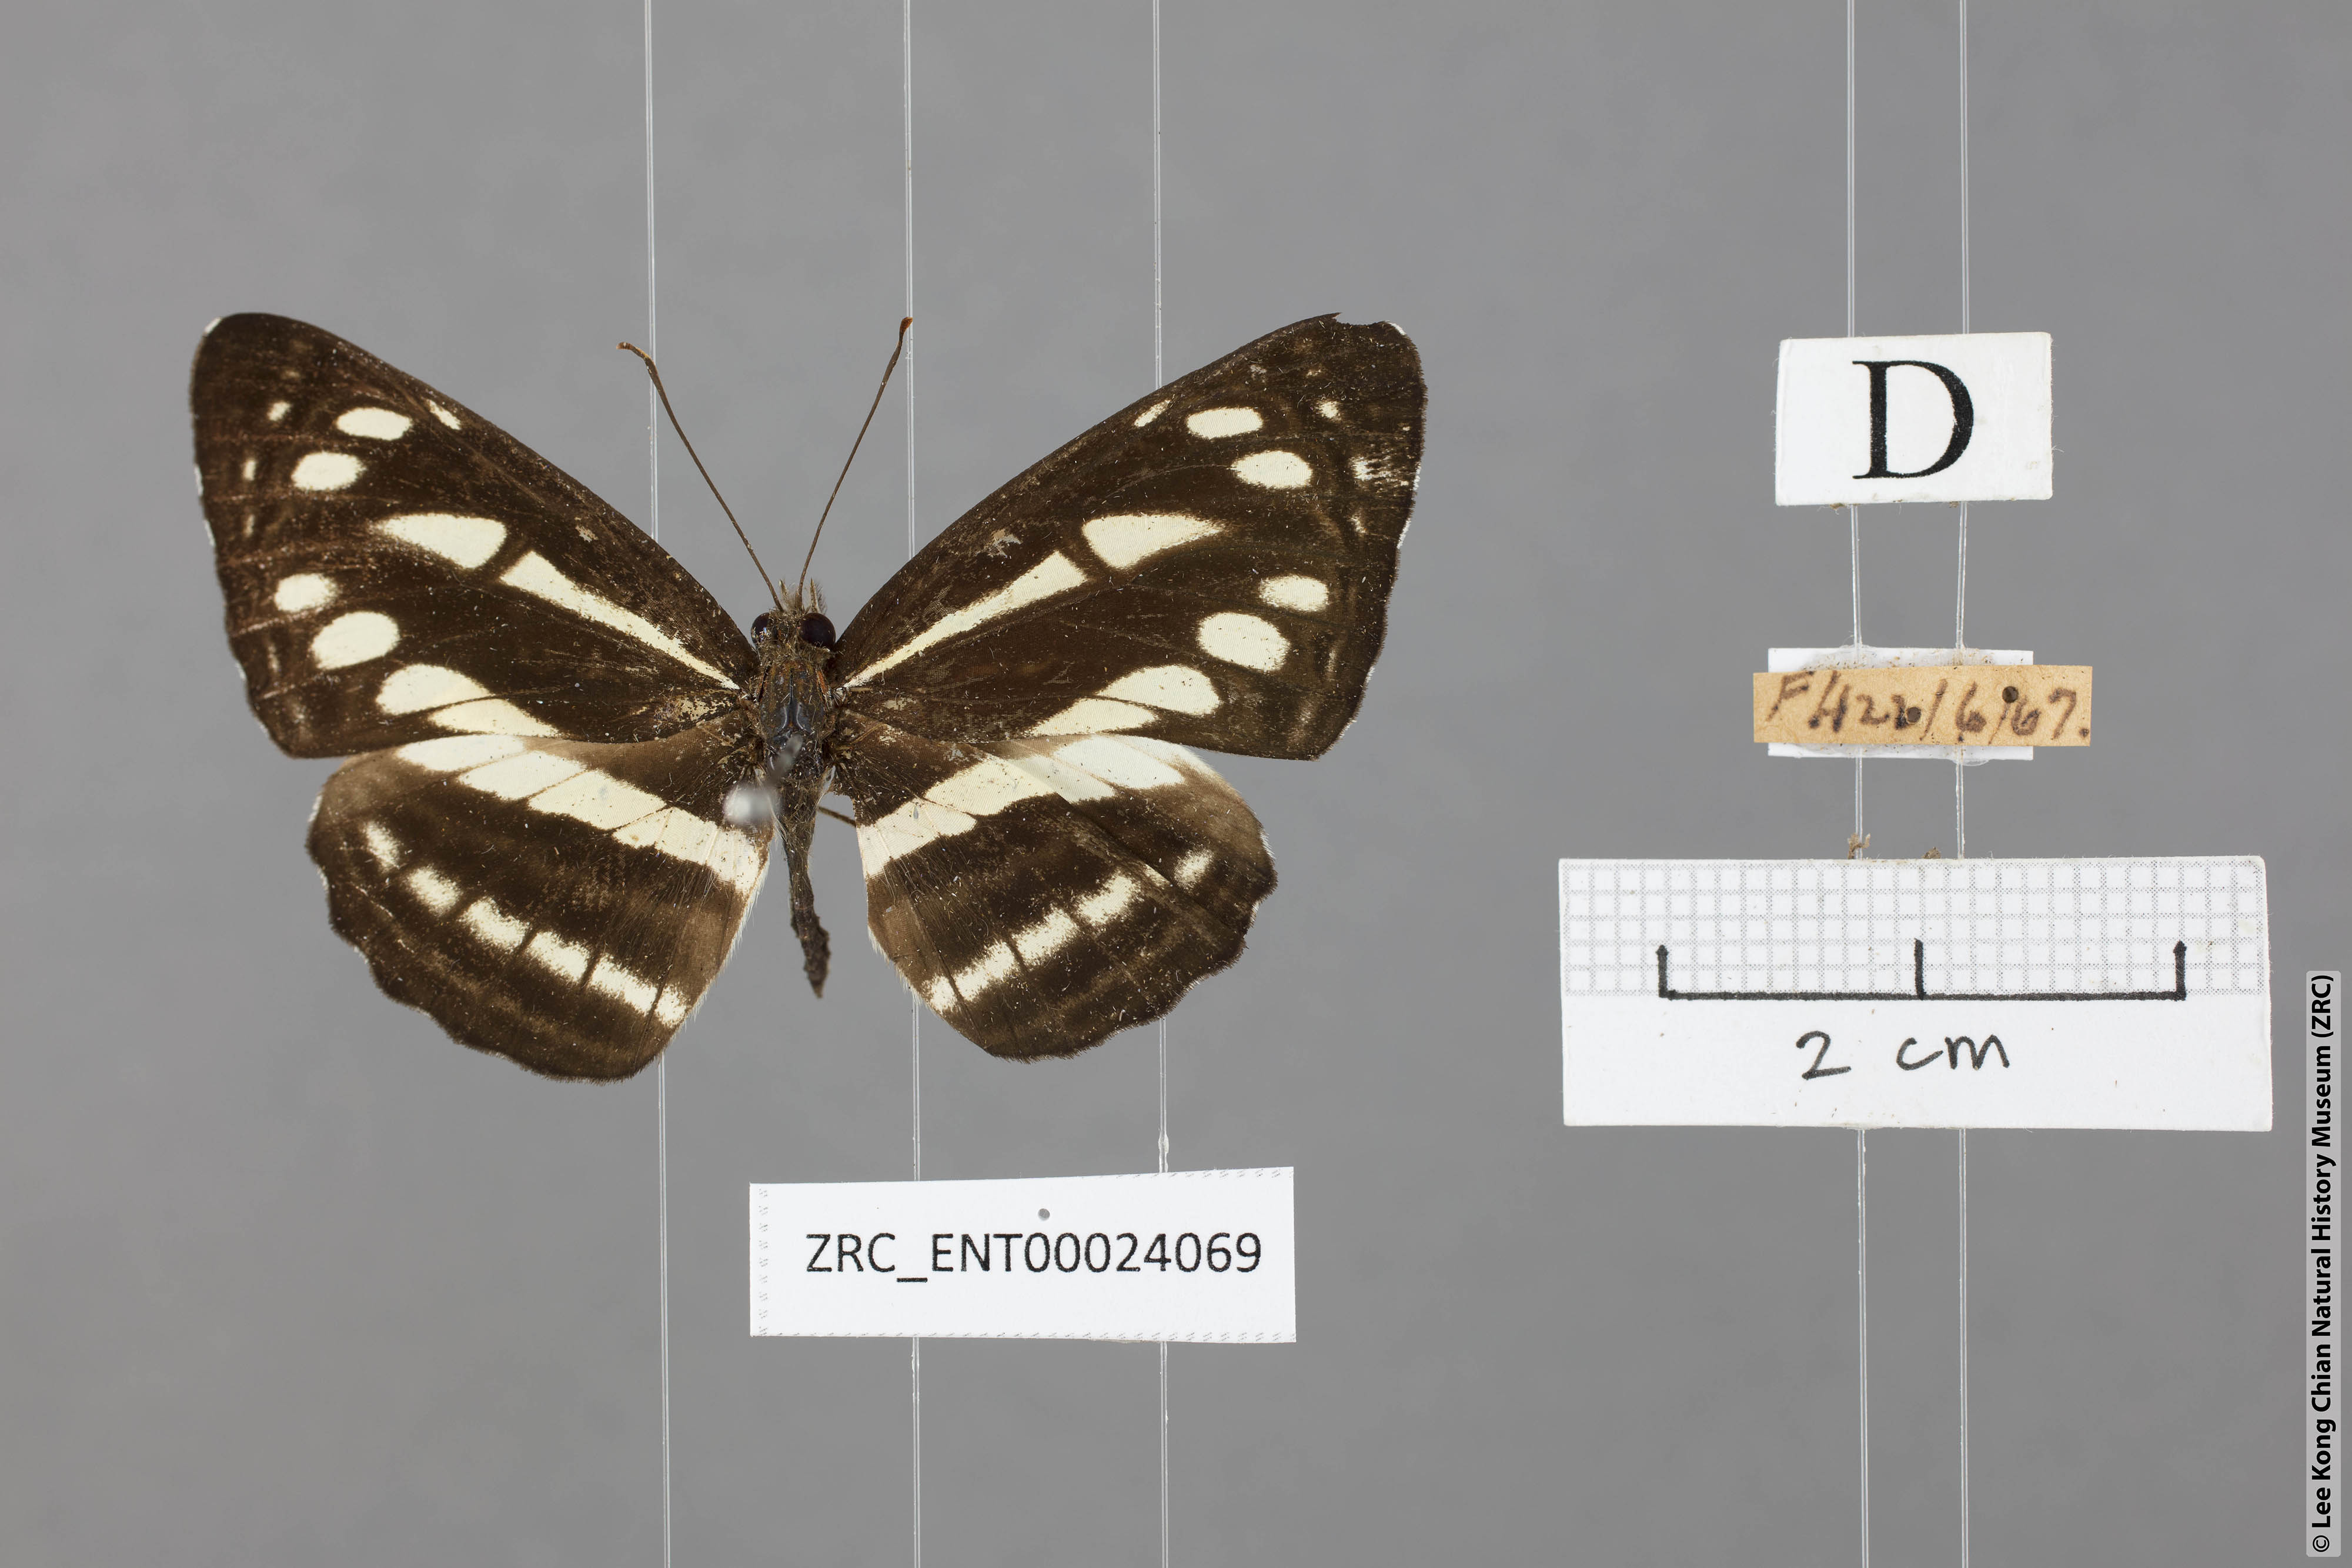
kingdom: Animalia
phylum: Arthropoda
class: Insecta
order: Lepidoptera
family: Nymphalidae
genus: Neptis
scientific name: Neptis soma
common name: Cream-spotted sailor
